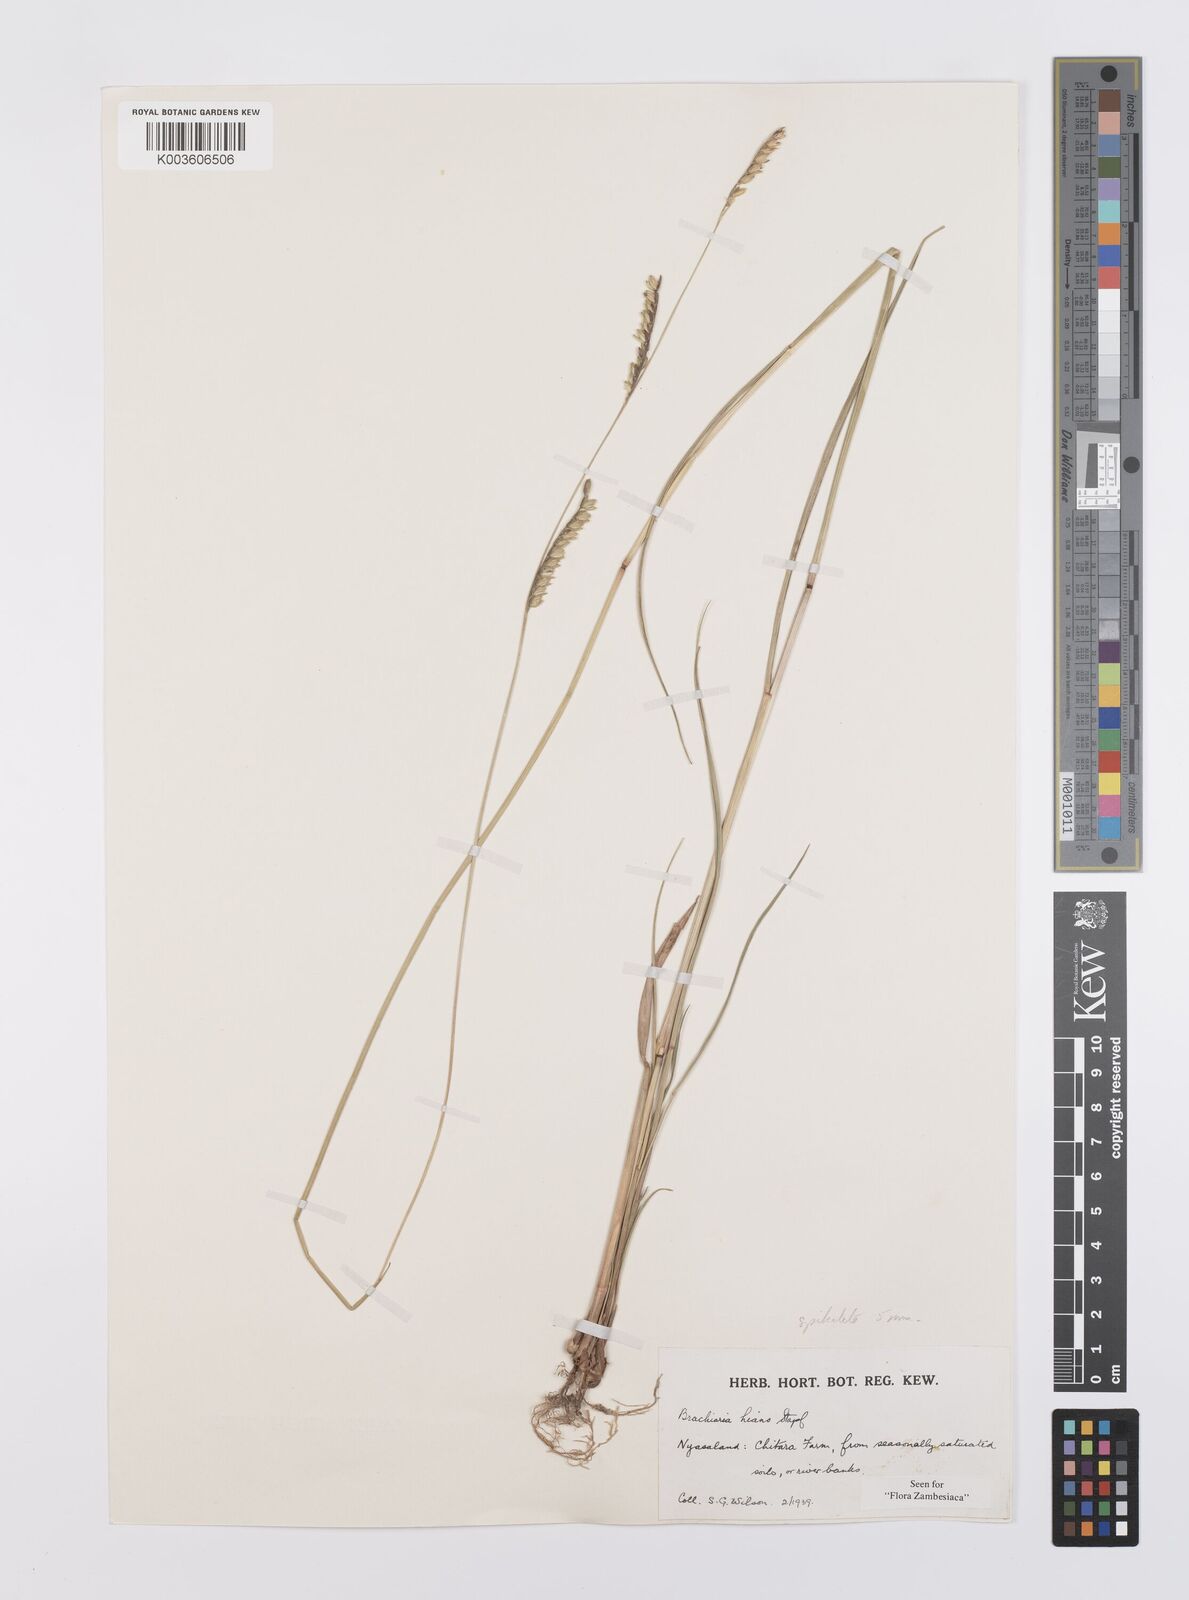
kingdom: Plantae
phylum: Tracheophyta
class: Liliopsida
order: Poales
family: Poaceae
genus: Urochloa
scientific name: Urochloa bovonei
